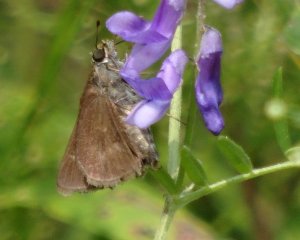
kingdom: Animalia
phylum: Arthropoda
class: Insecta
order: Lepidoptera
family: Hesperiidae
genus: Euphyes
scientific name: Euphyes vestris
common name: Dun Skipper
